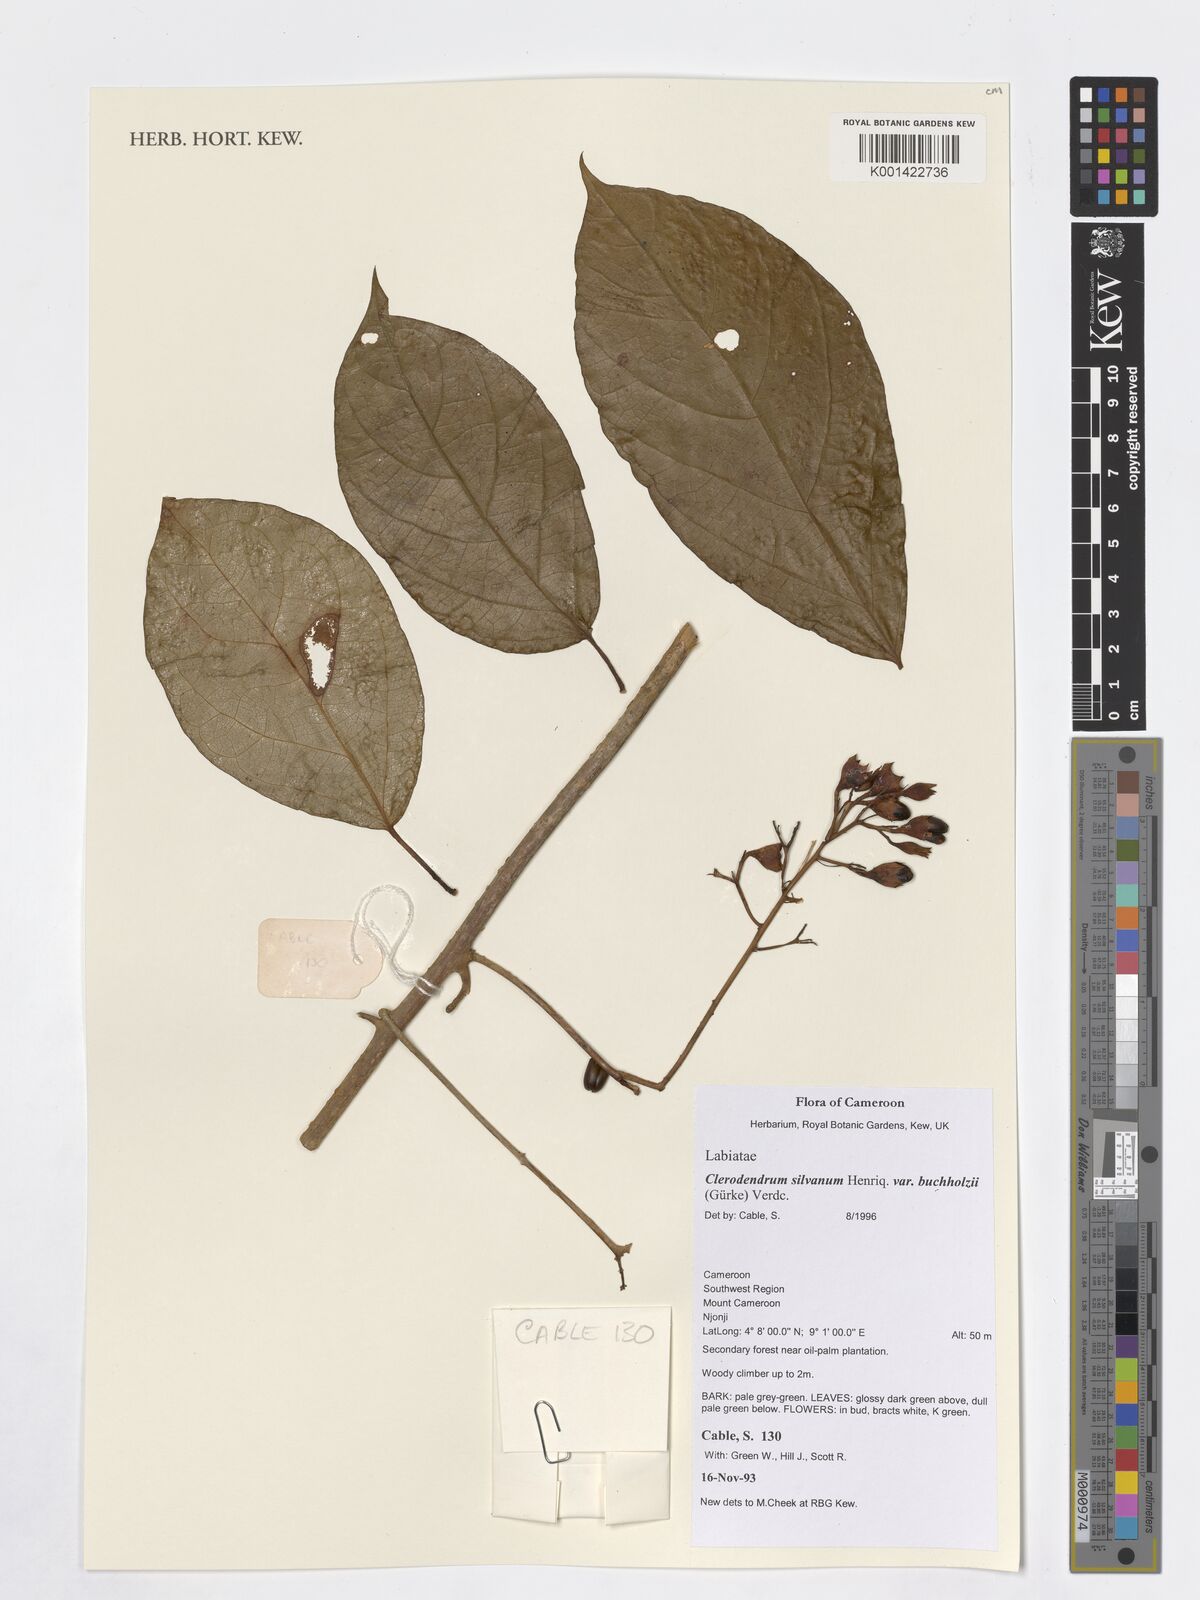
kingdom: Plantae
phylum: Tracheophyta
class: Magnoliopsida
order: Lamiales
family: Lamiaceae
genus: Clerodendrum
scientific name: Clerodendrum silvanum
